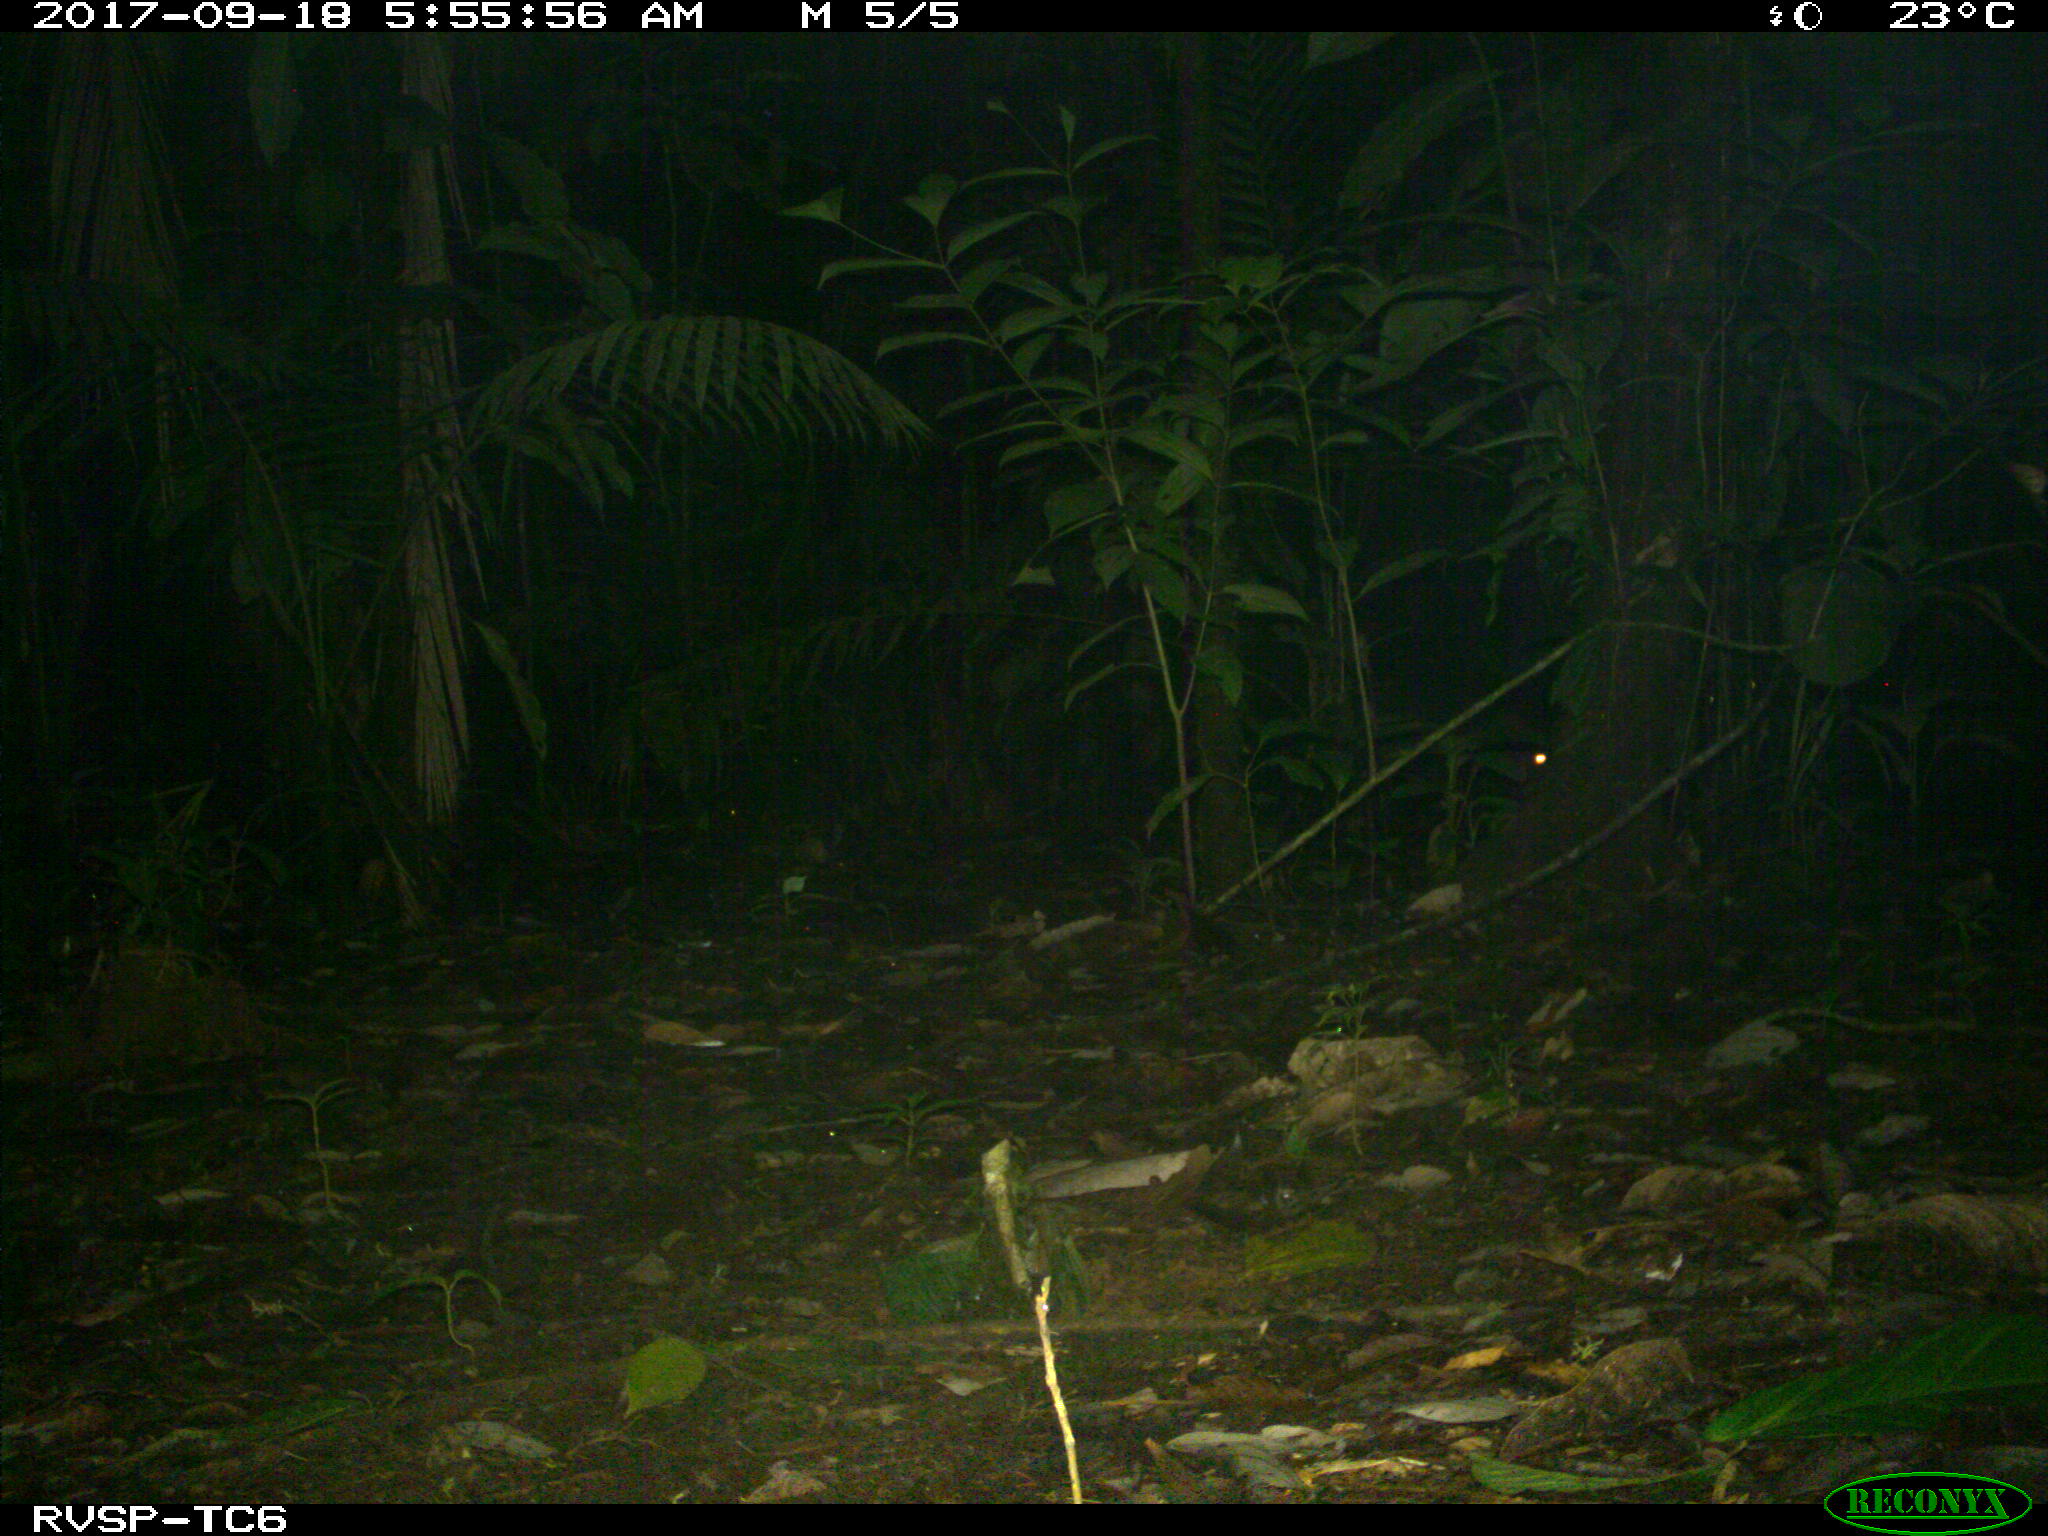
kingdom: Animalia
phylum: Chordata
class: Mammalia
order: Rodentia
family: Cuniculidae
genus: Cuniculus
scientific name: Cuniculus paca
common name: Lowland paca
